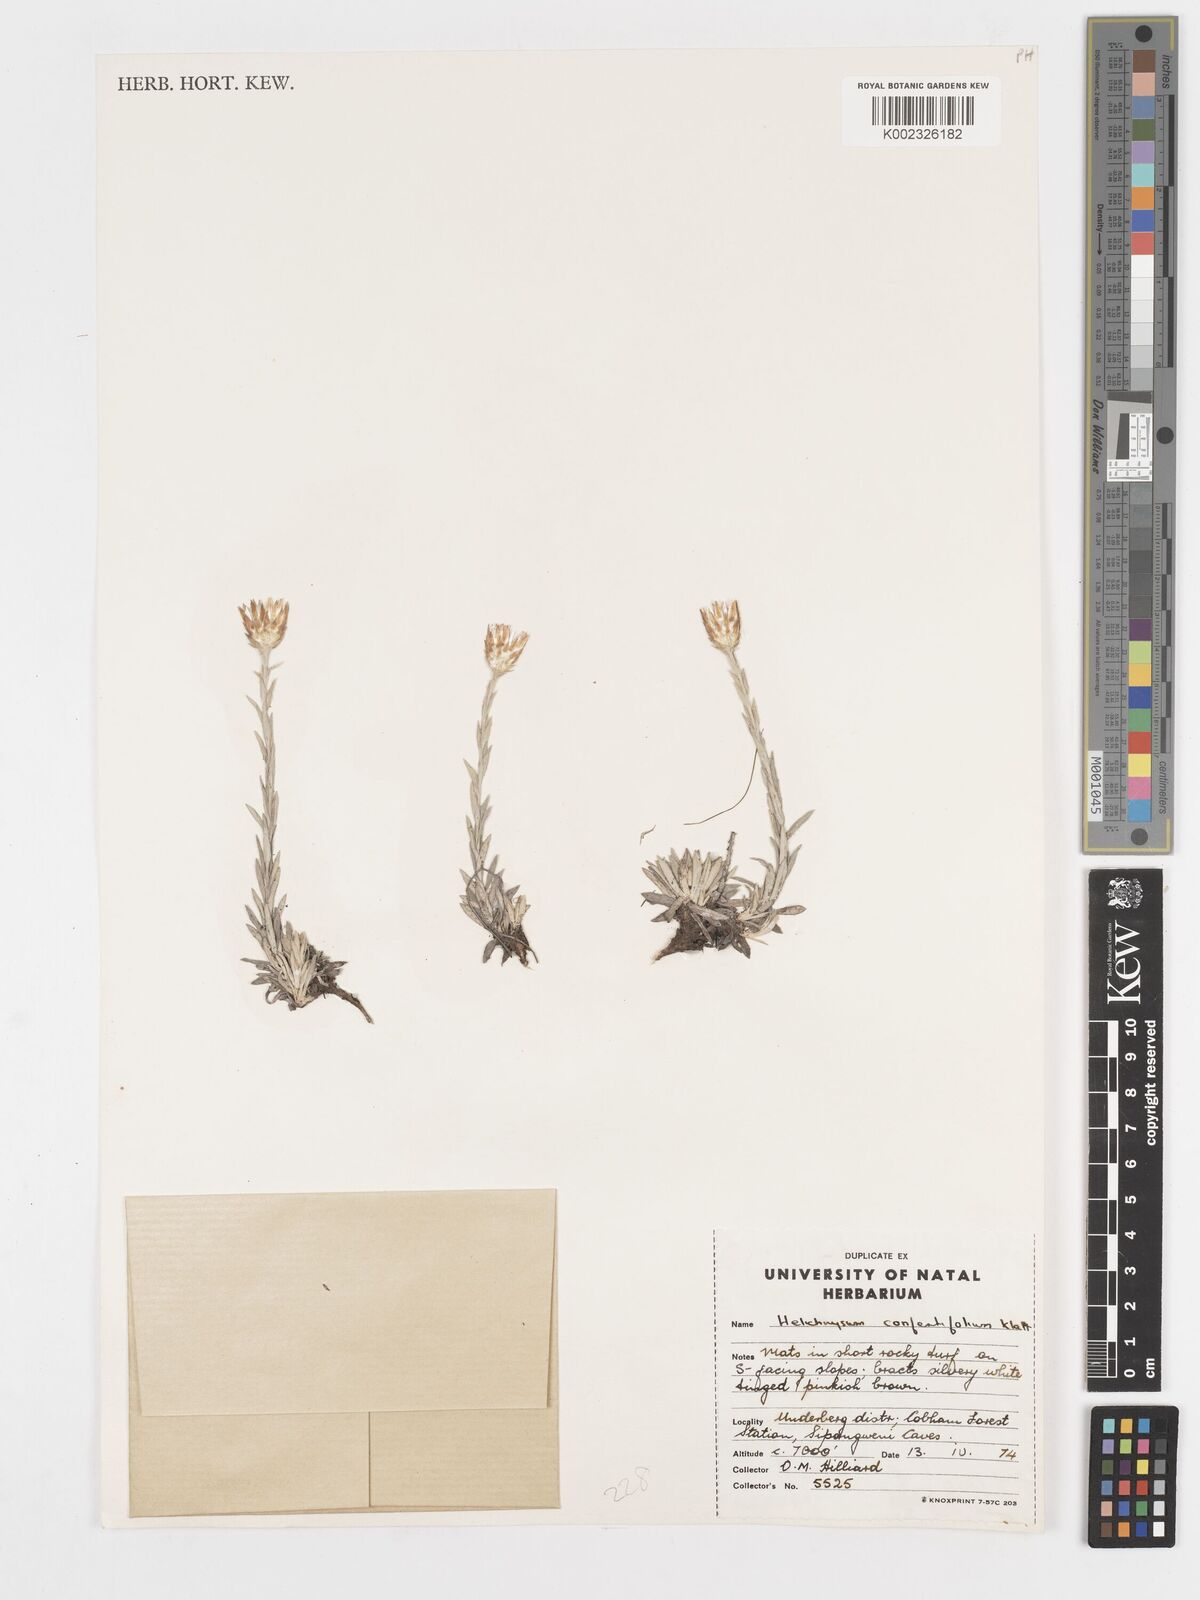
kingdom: Plantae
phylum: Tracheophyta
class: Magnoliopsida
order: Asterales
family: Asteraceae
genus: Helichrysum
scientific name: Helichrysum confertifolium
